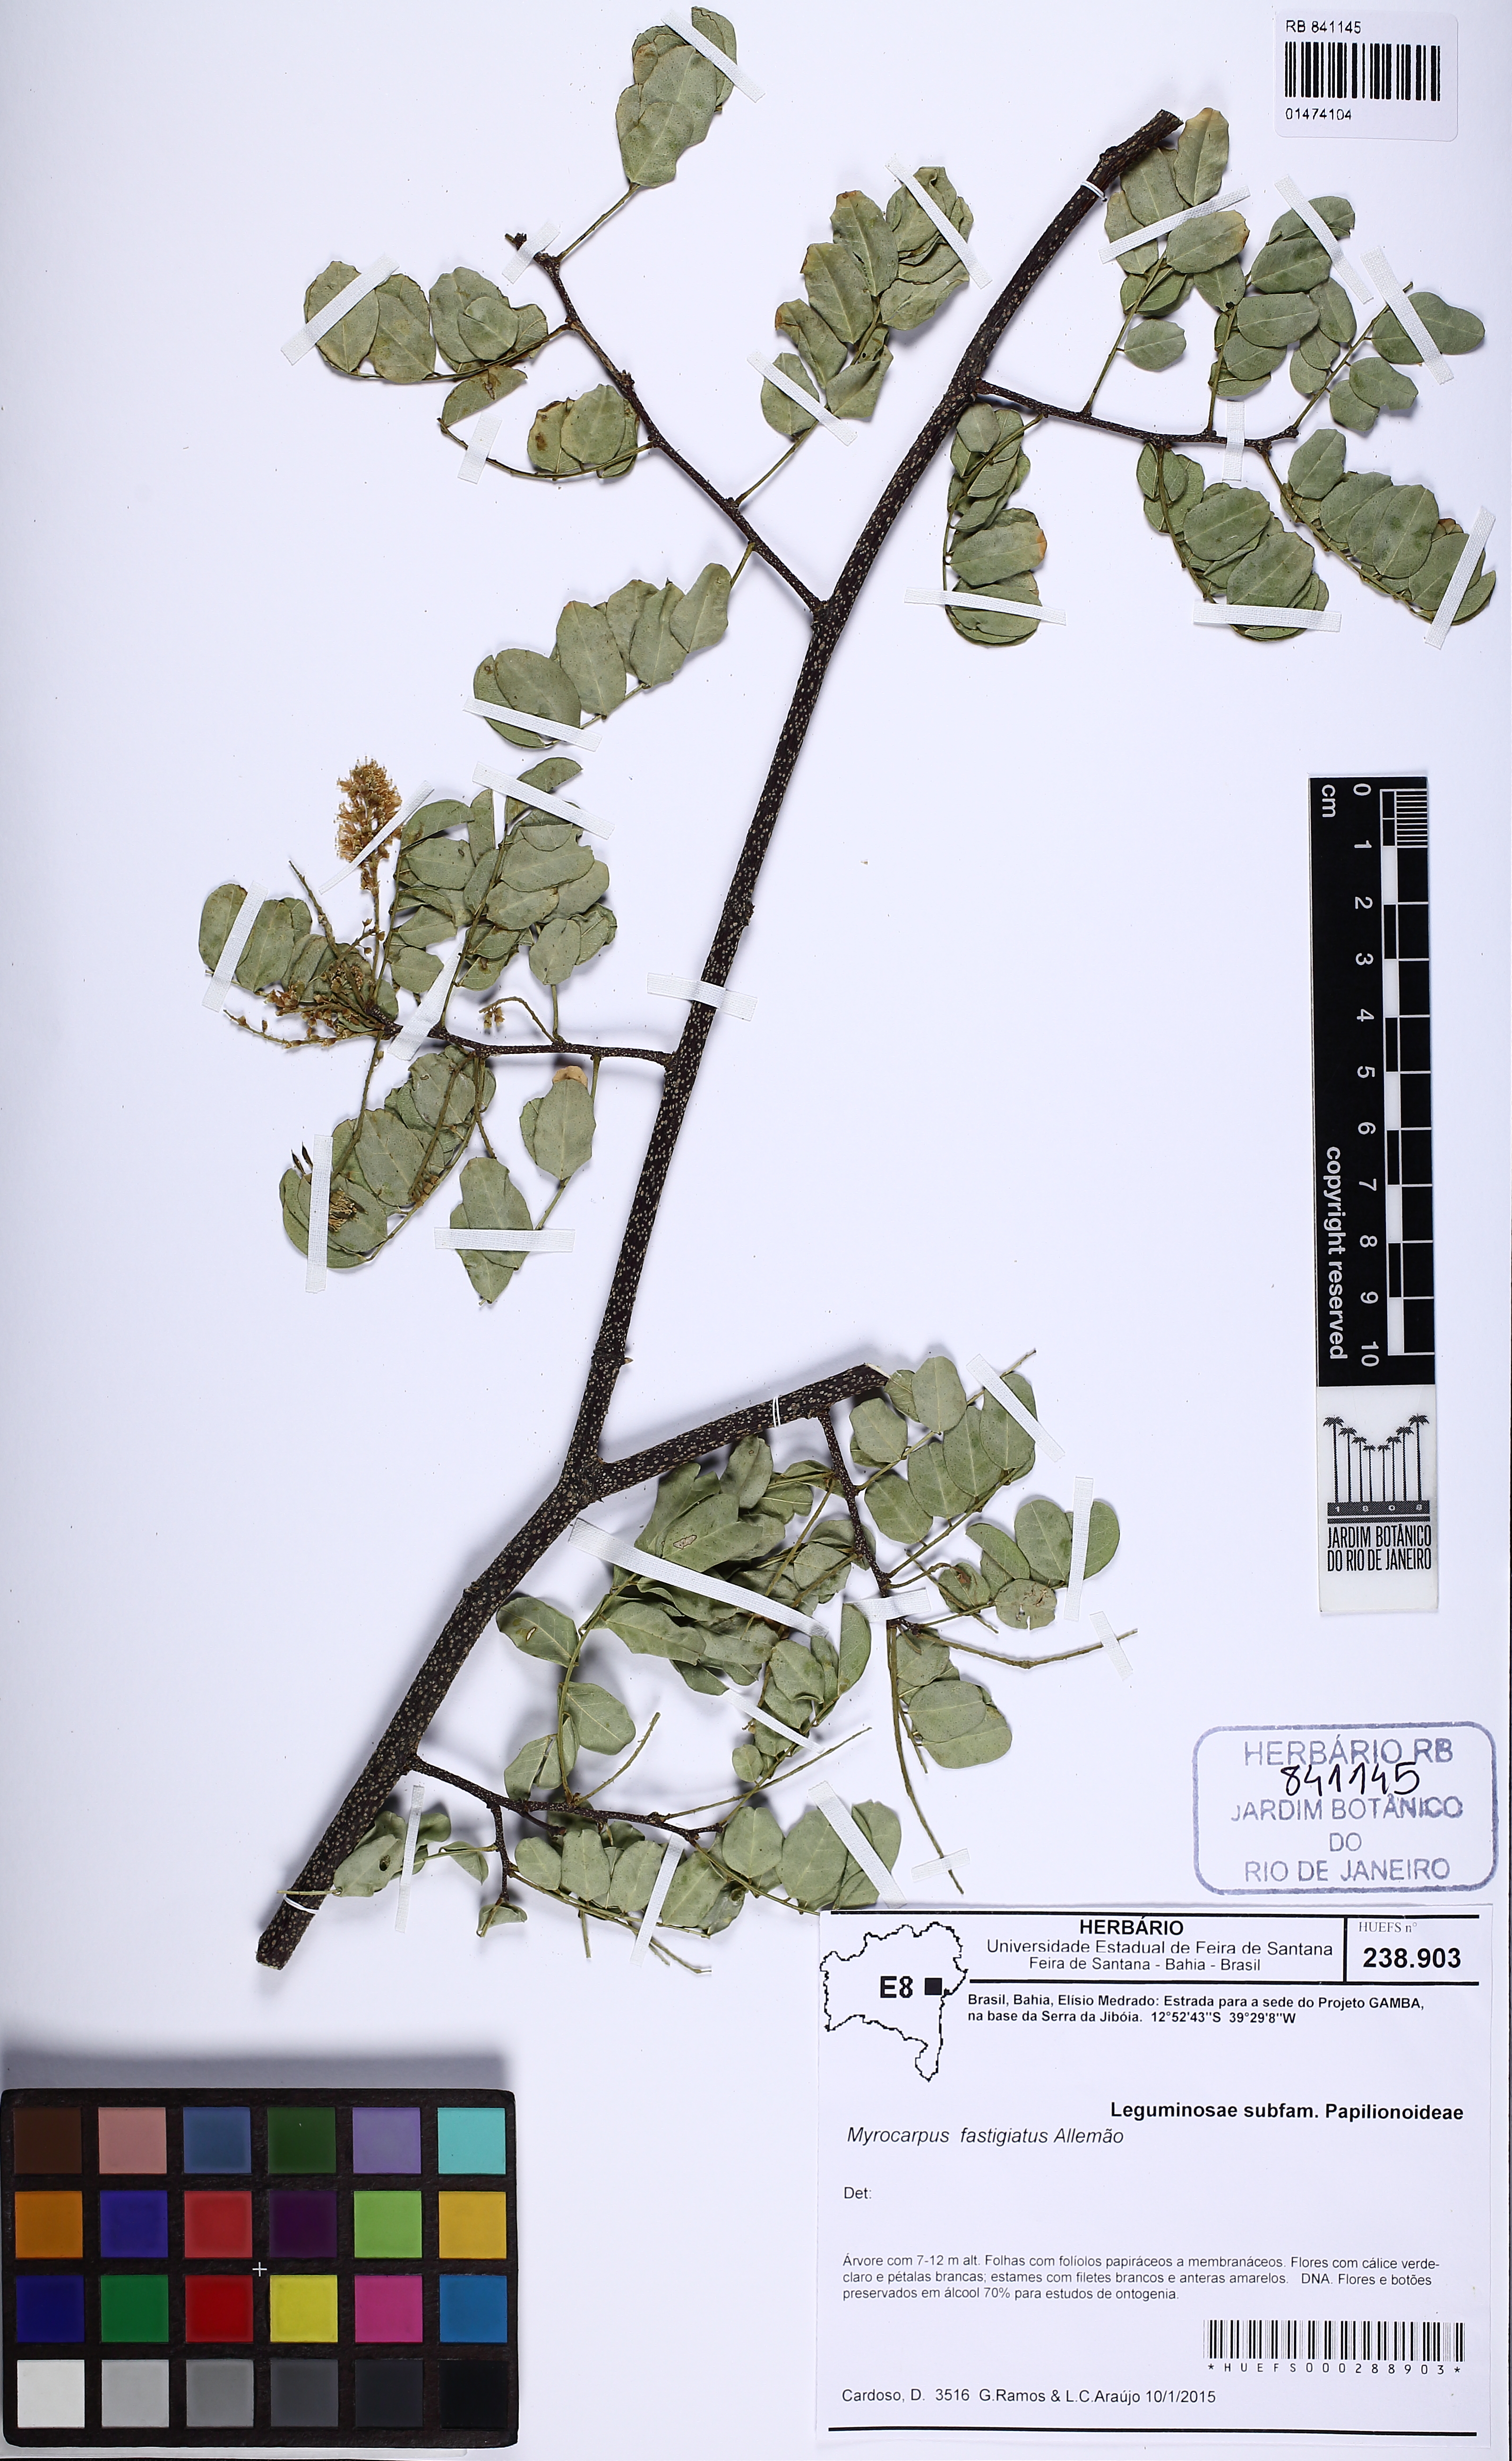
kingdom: Plantae
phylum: Tracheophyta
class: Magnoliopsida
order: Fabales
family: Fabaceae
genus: Myrocarpus
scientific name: Myrocarpus fastigiatus
